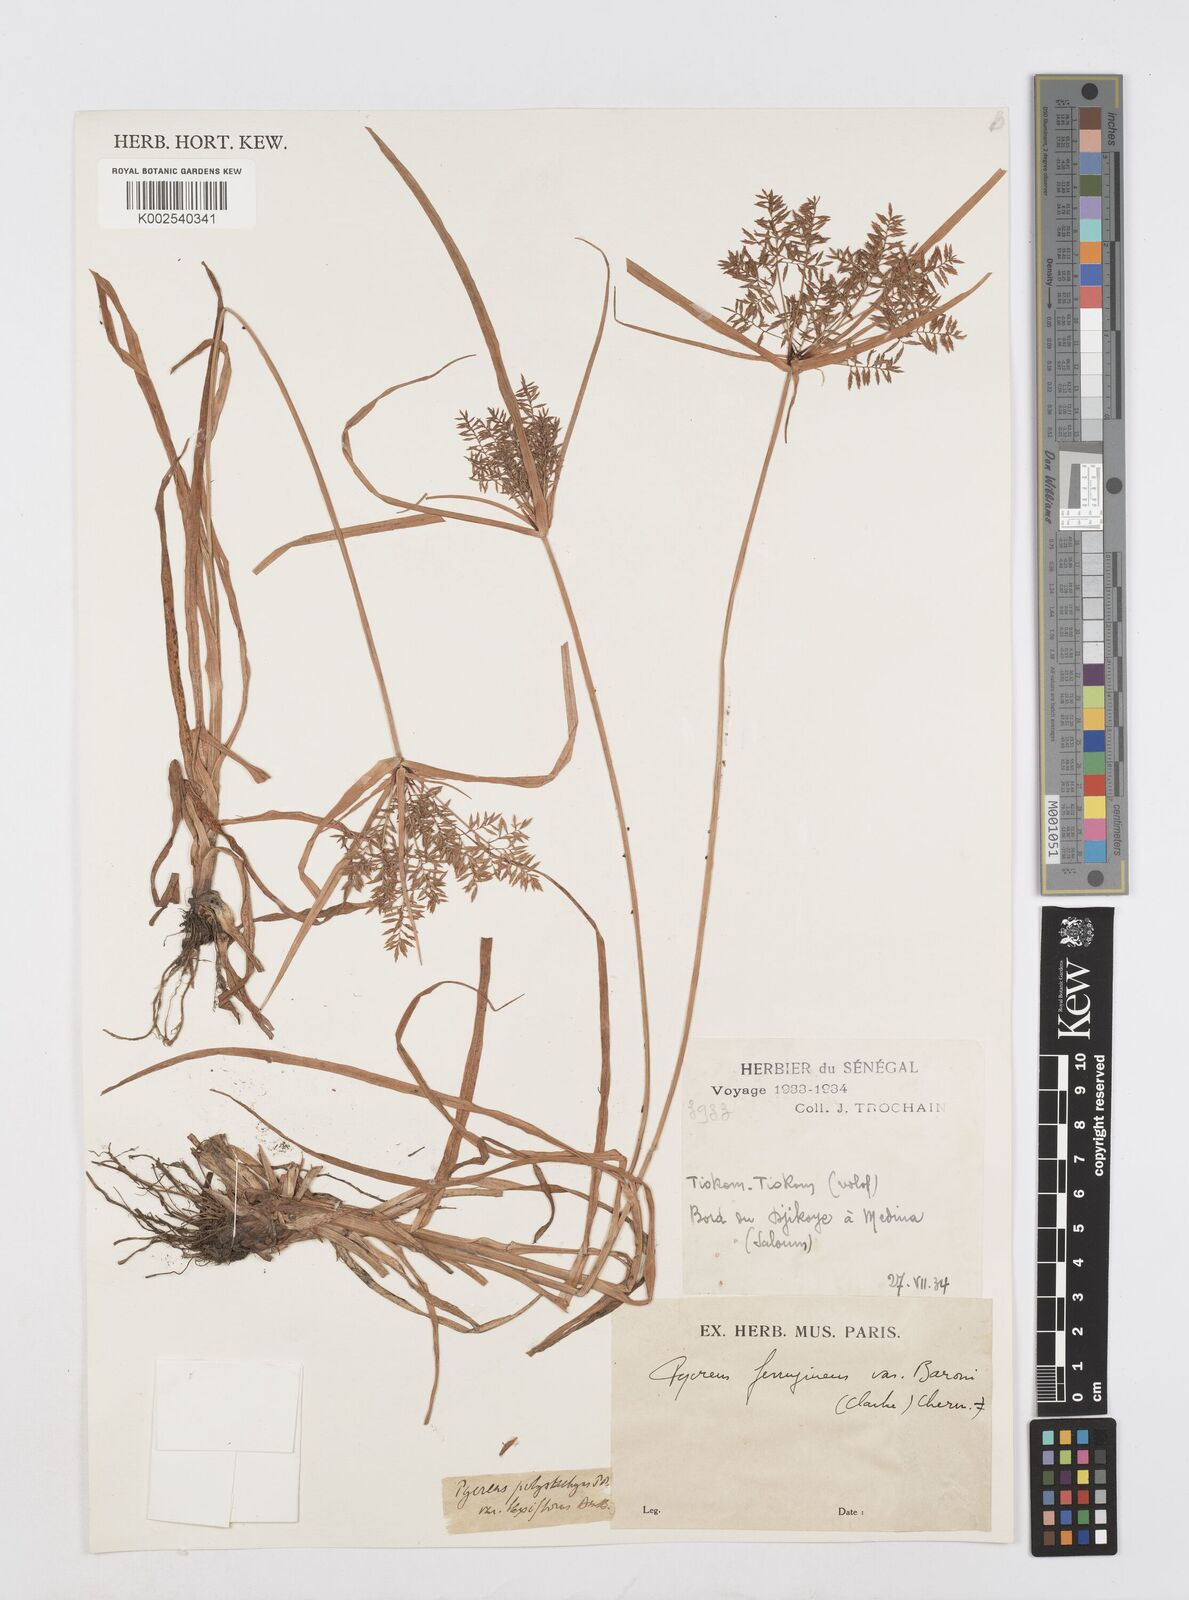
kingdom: Plantae
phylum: Tracheophyta
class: Liliopsida
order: Poales
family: Cyperaceae
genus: Cyperus
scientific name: Cyperus intactus
